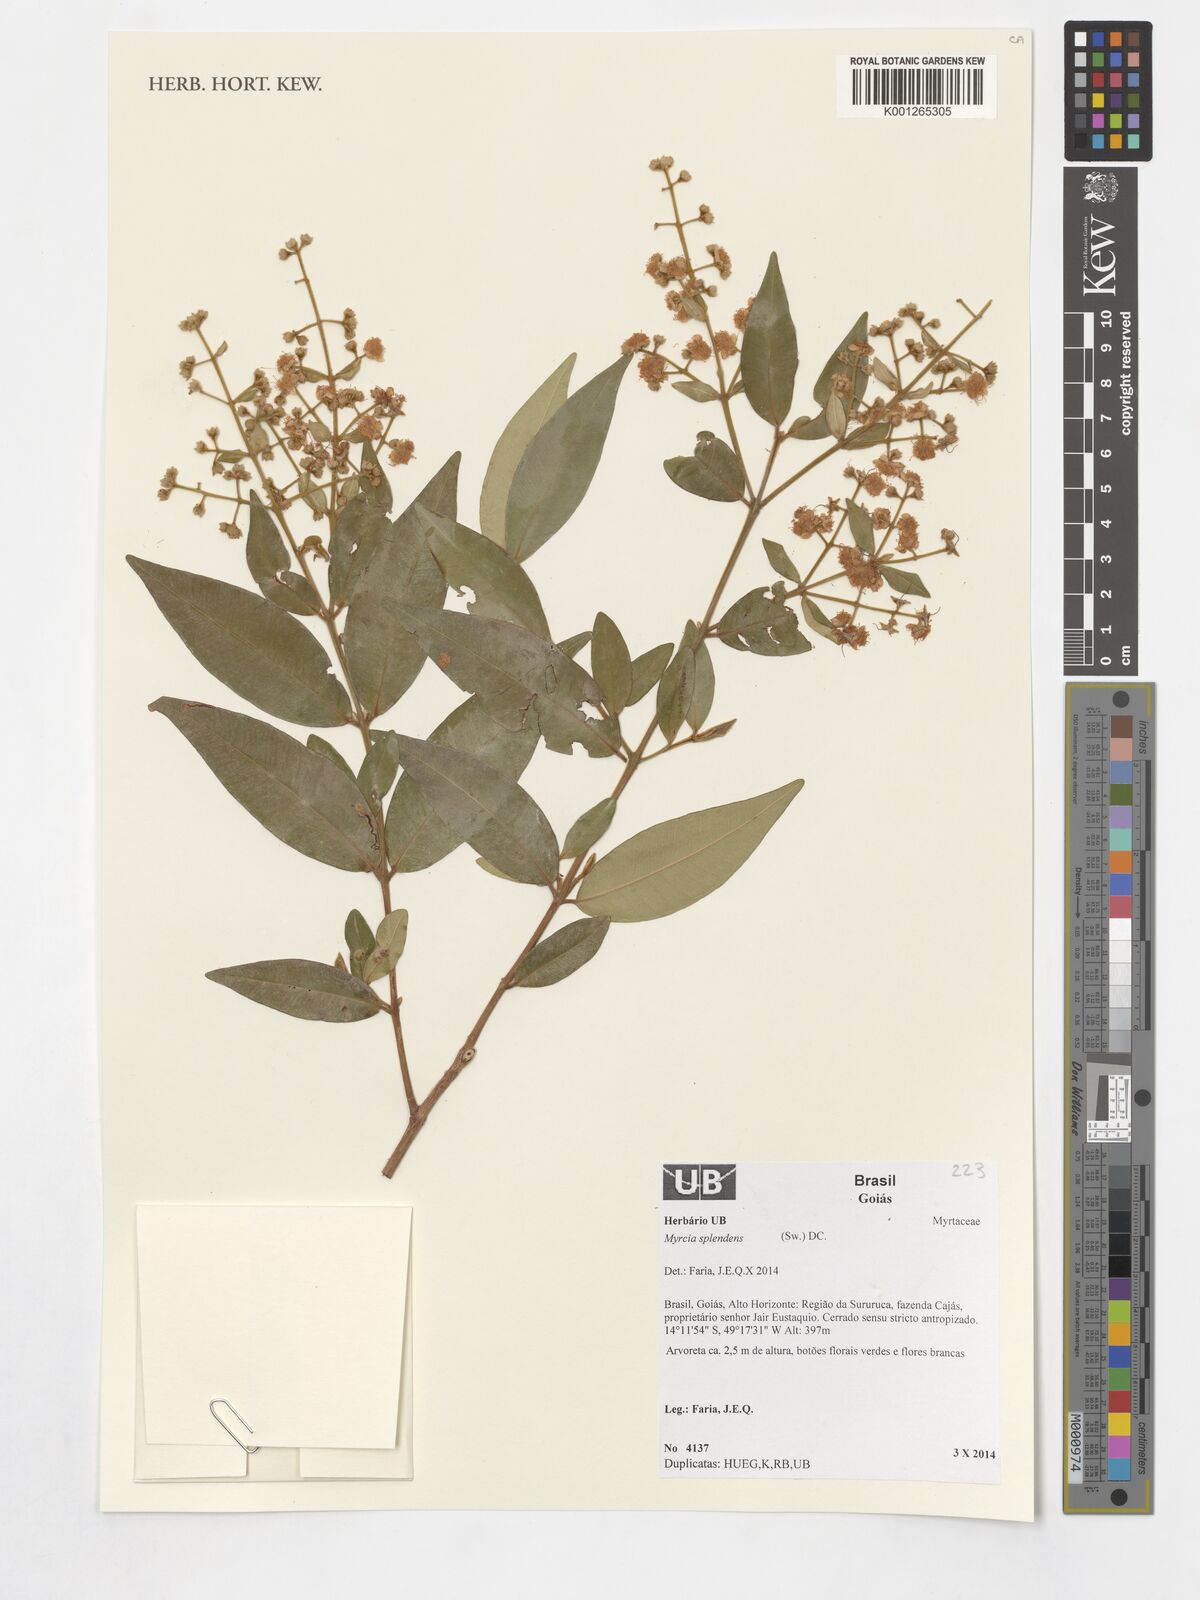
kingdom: Plantae
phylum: Tracheophyta
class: Magnoliopsida
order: Myrtales
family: Myrtaceae
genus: Myrcia
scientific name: Myrcia splendens
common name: Surinam cherry
